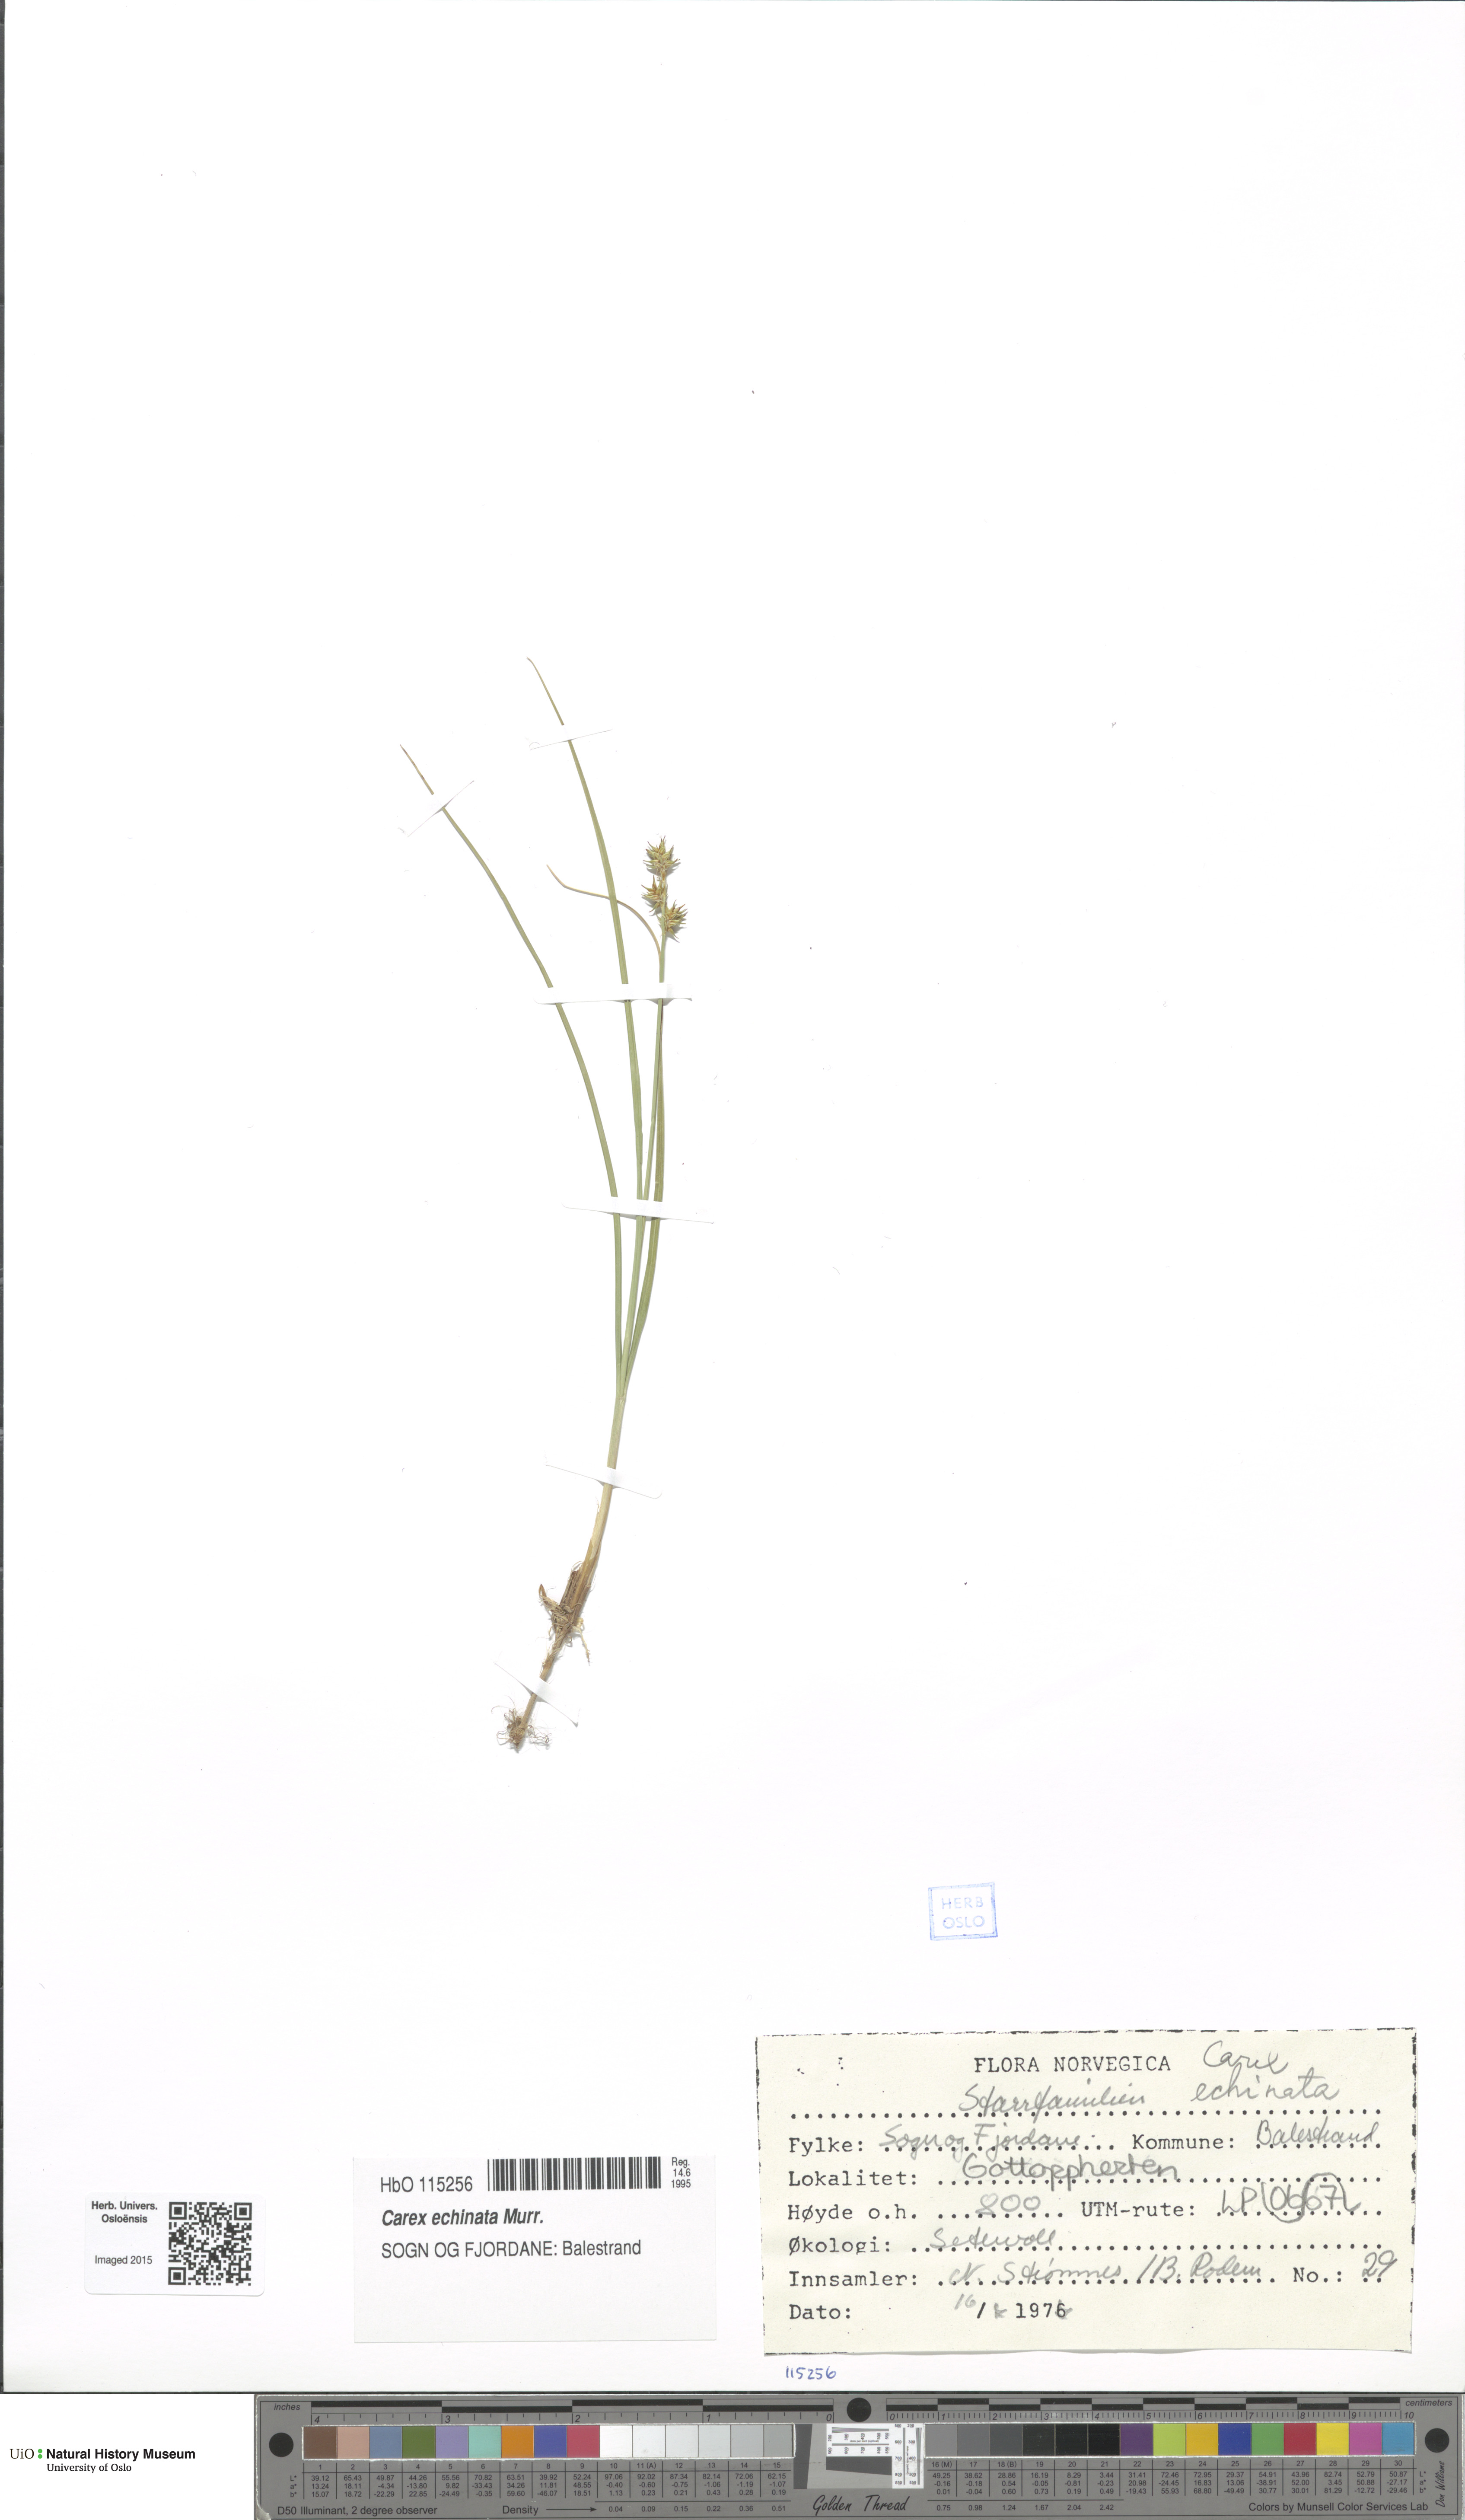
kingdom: Plantae
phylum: Tracheophyta
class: Liliopsida
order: Poales
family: Cyperaceae
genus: Carex
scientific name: Carex echinata
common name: Star sedge
